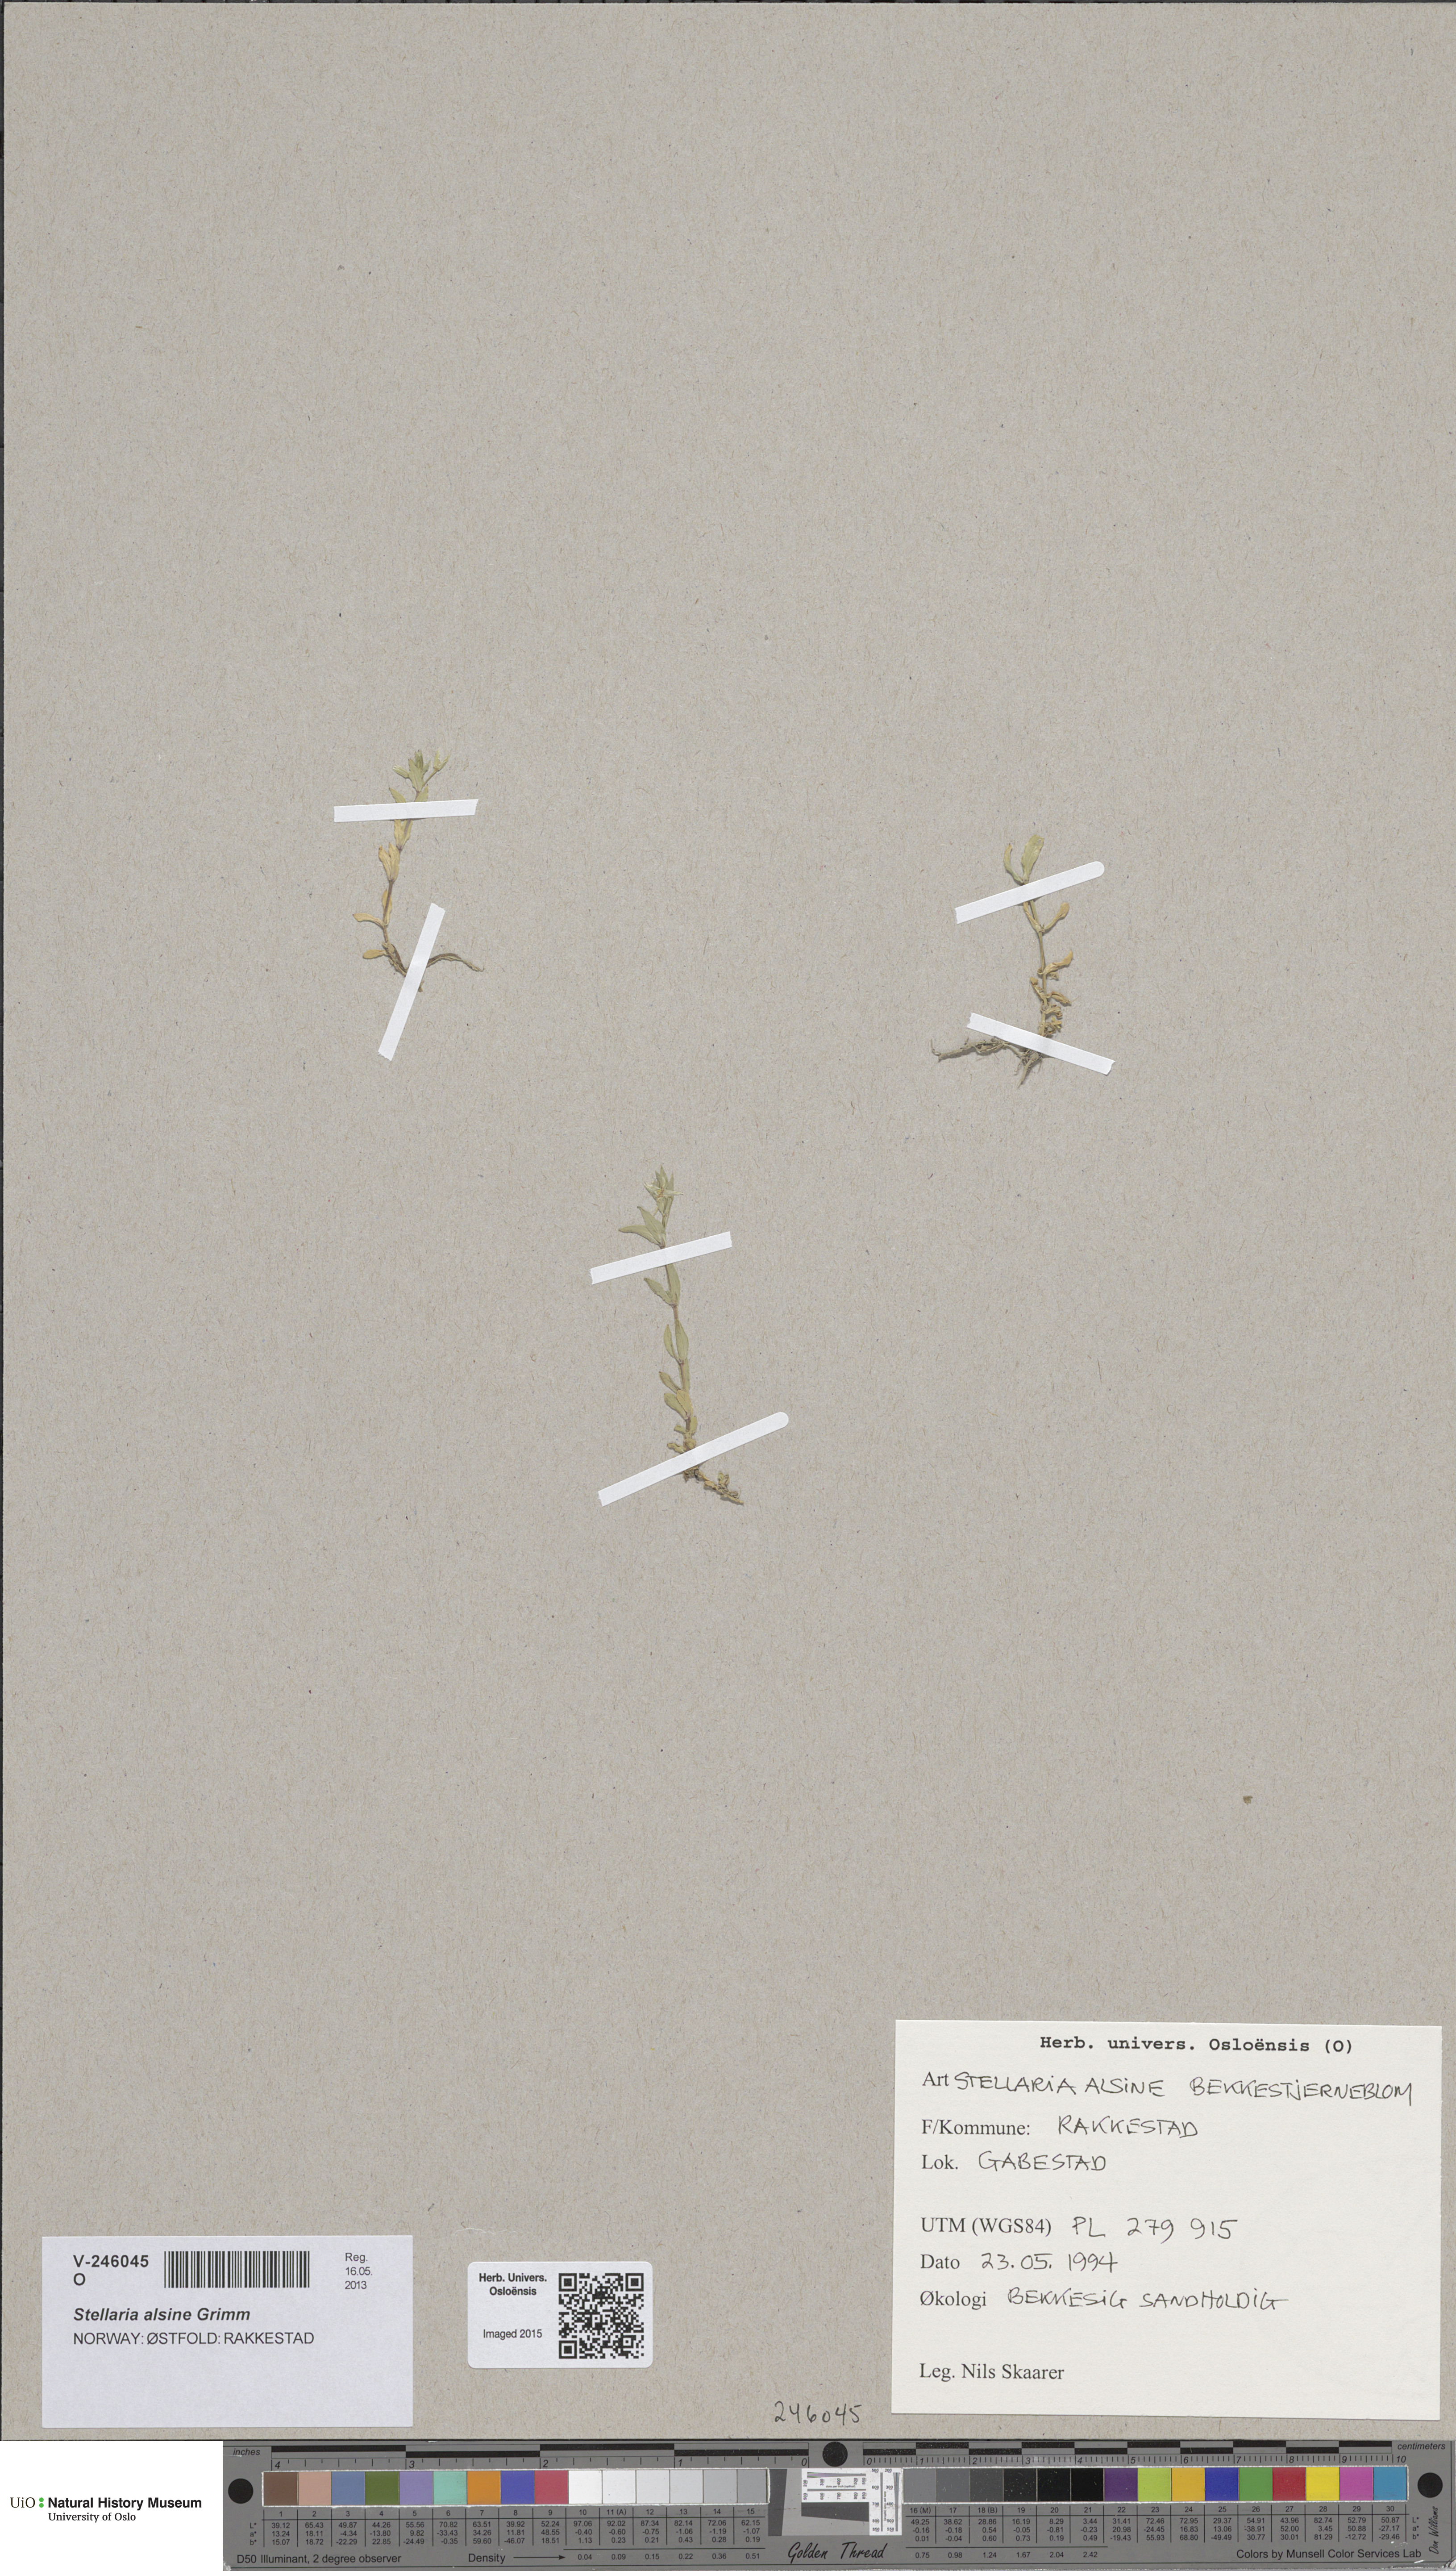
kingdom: Plantae
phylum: Tracheophyta
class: Magnoliopsida
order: Caryophyllales
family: Caryophyllaceae
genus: Stellaria
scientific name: Stellaria alsine
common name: Bog stitchwort
